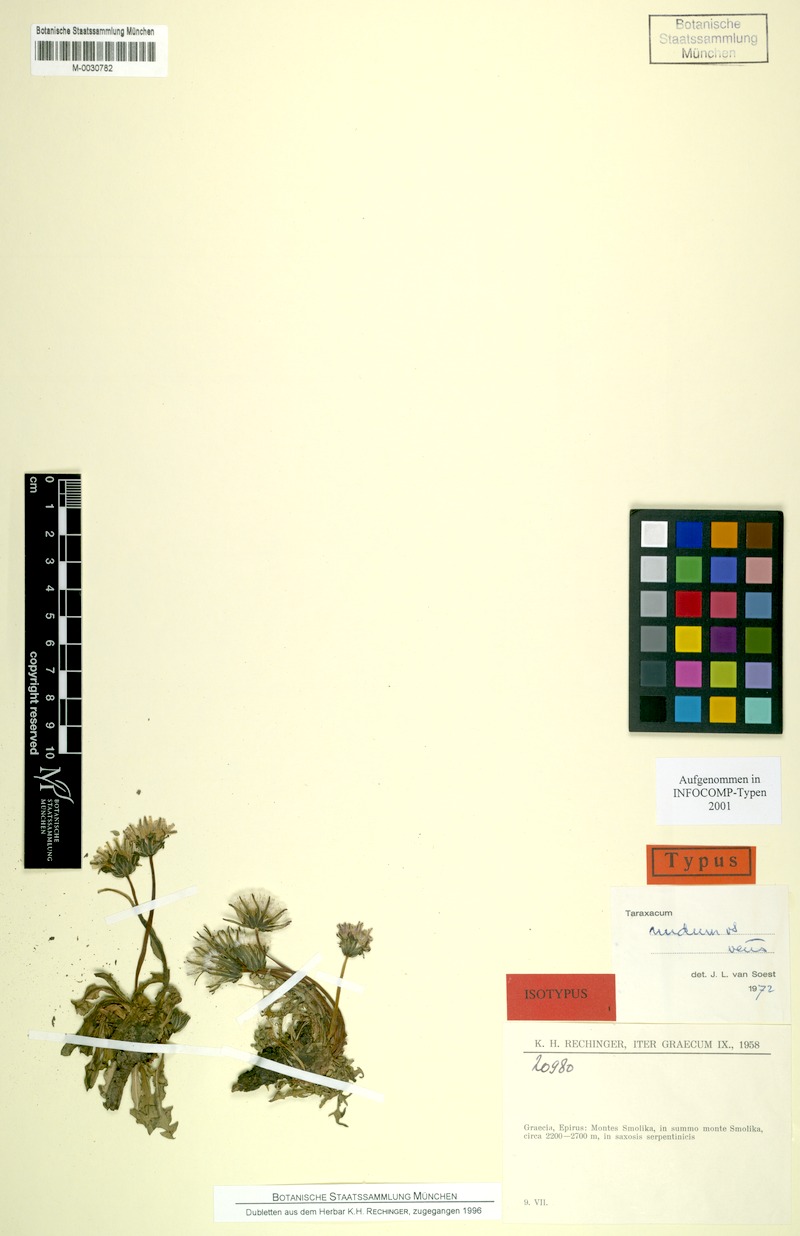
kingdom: Plantae
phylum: Tracheophyta
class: Magnoliopsida
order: Asterales
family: Asteraceae
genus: Taraxacum
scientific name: Taraxacum nudum
